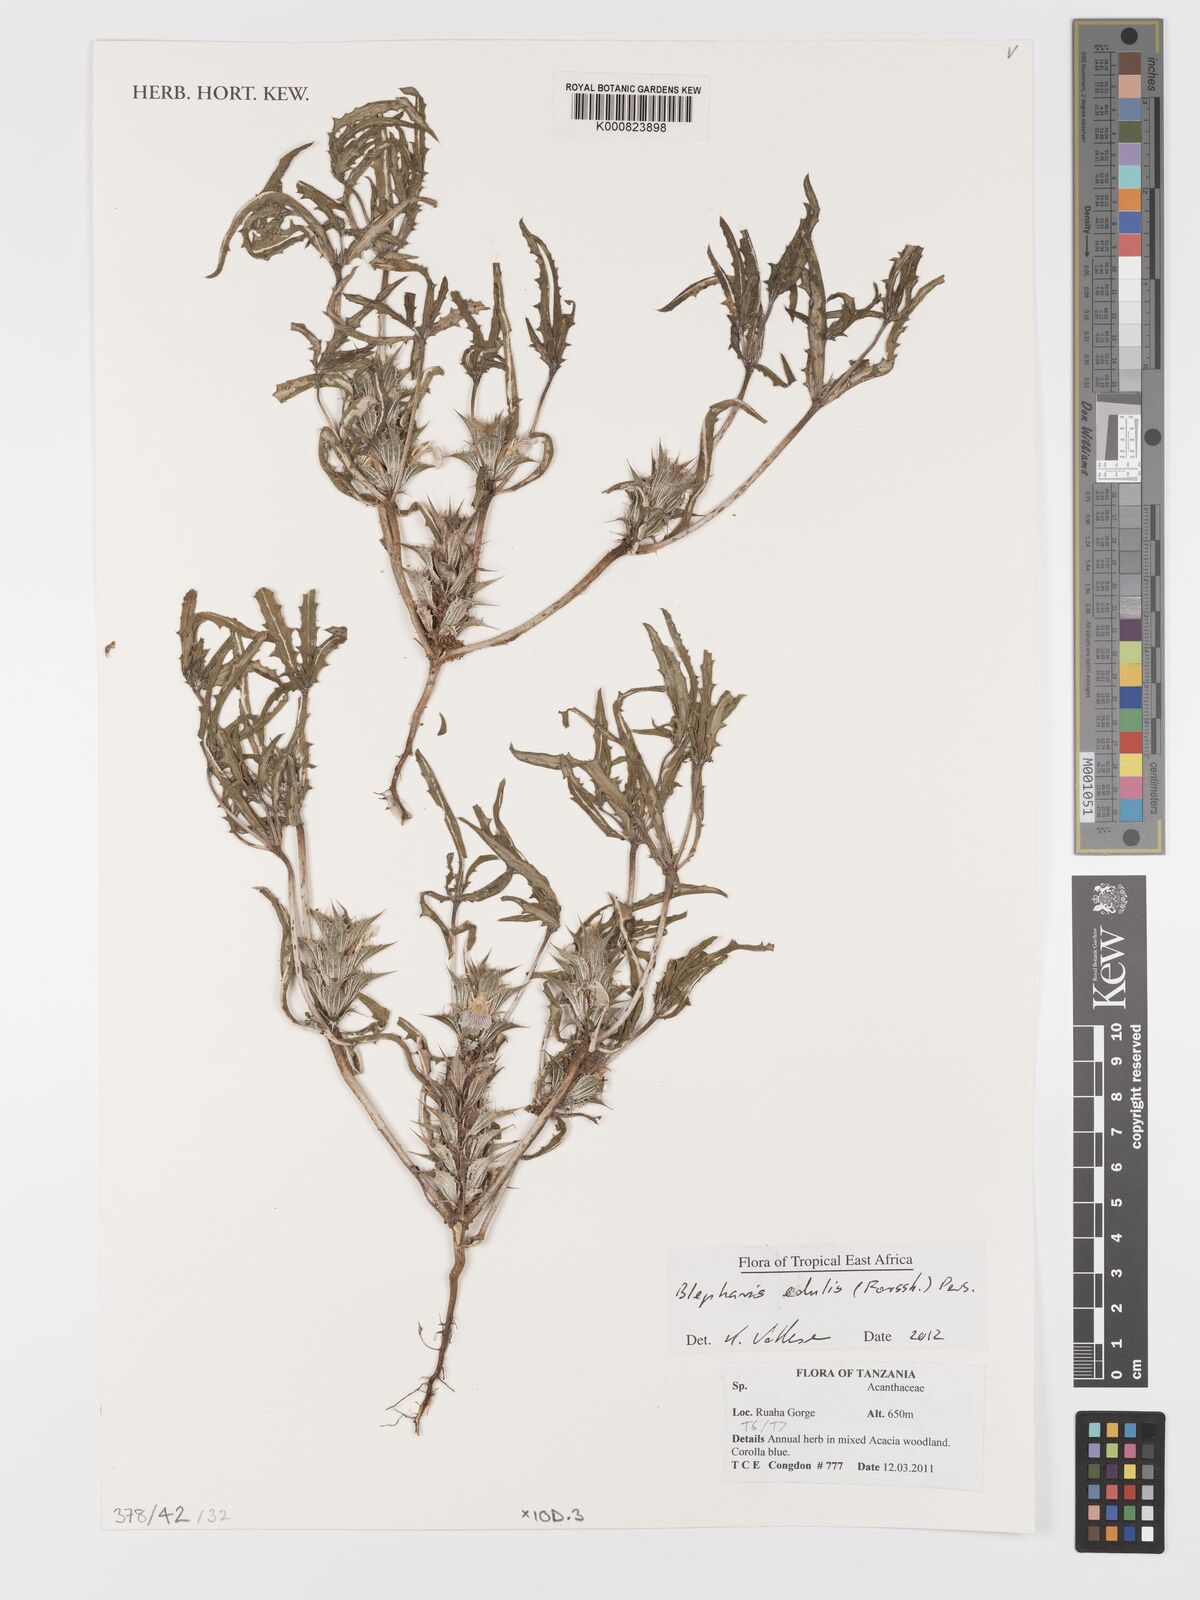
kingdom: Plantae
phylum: Tracheophyta
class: Magnoliopsida
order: Lamiales
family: Acanthaceae
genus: Blepharis
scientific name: Blepharis edulis
